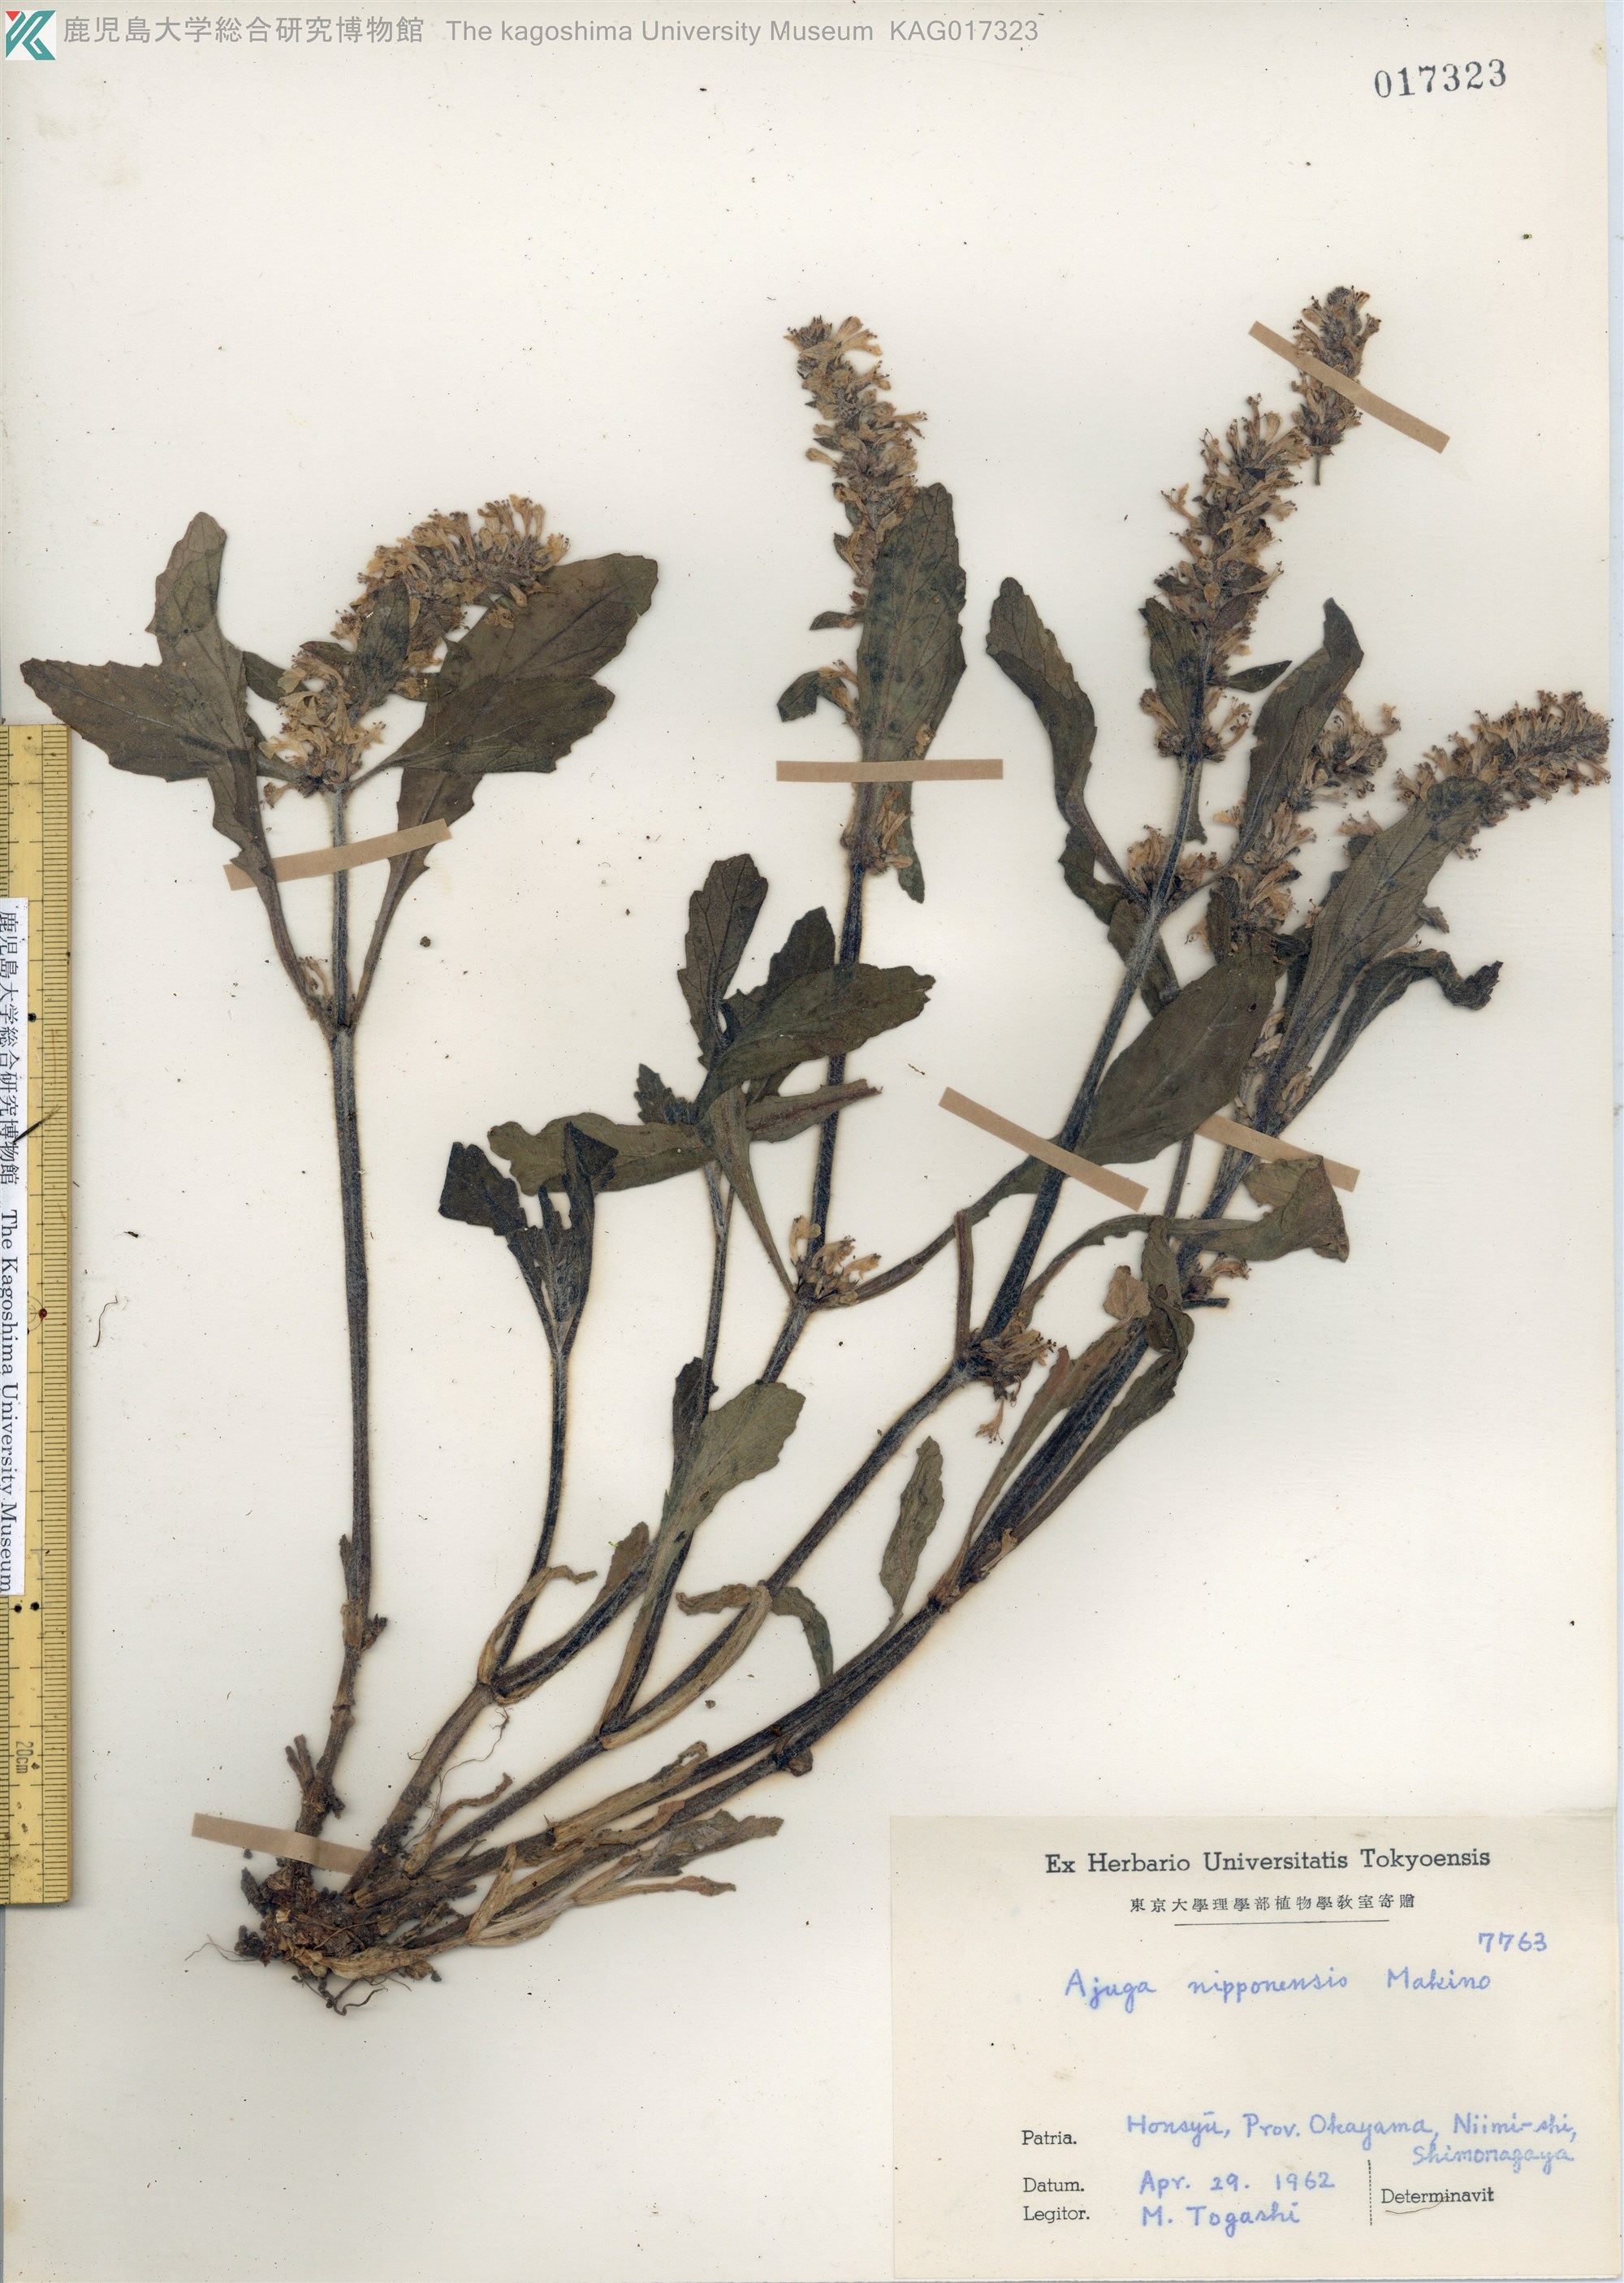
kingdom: Plantae
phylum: Tracheophyta
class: Magnoliopsida
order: Lamiales
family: Lamiaceae
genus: Ajuga
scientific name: Ajuga nipponensis
